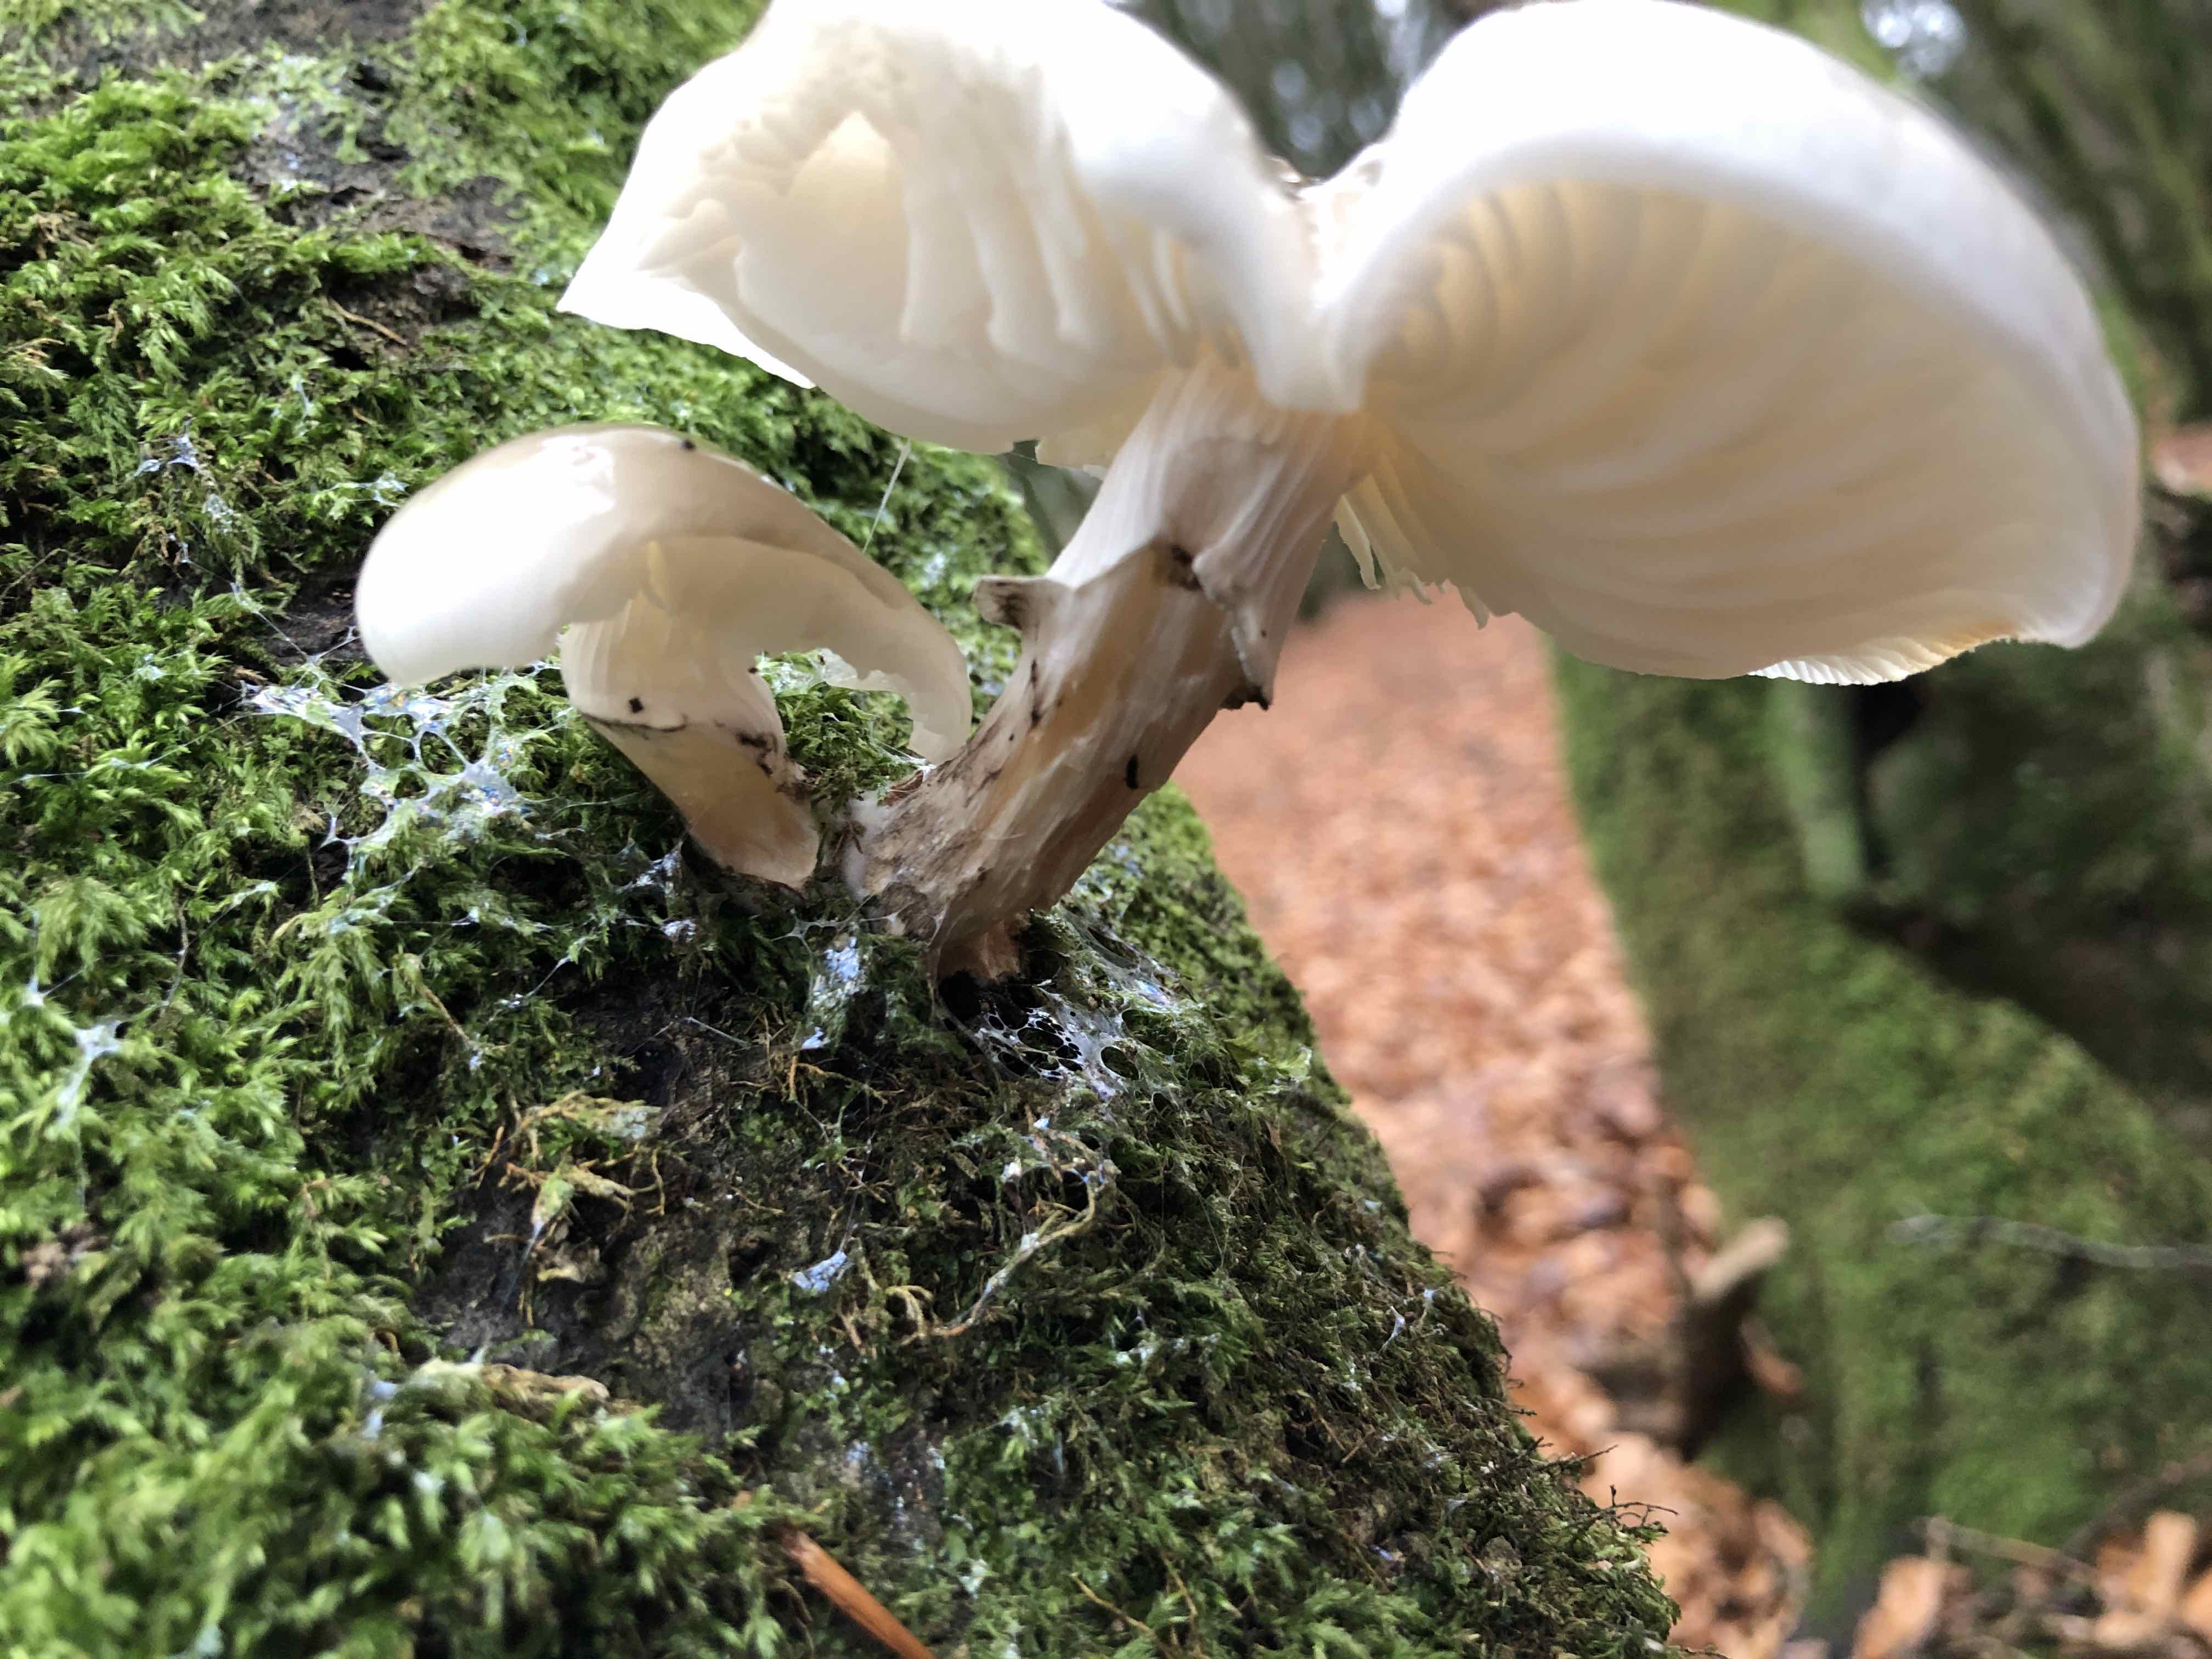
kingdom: Fungi
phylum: Basidiomycota
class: Agaricomycetes
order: Agaricales
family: Physalacriaceae
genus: Mucidula
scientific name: Mucidula mucida
